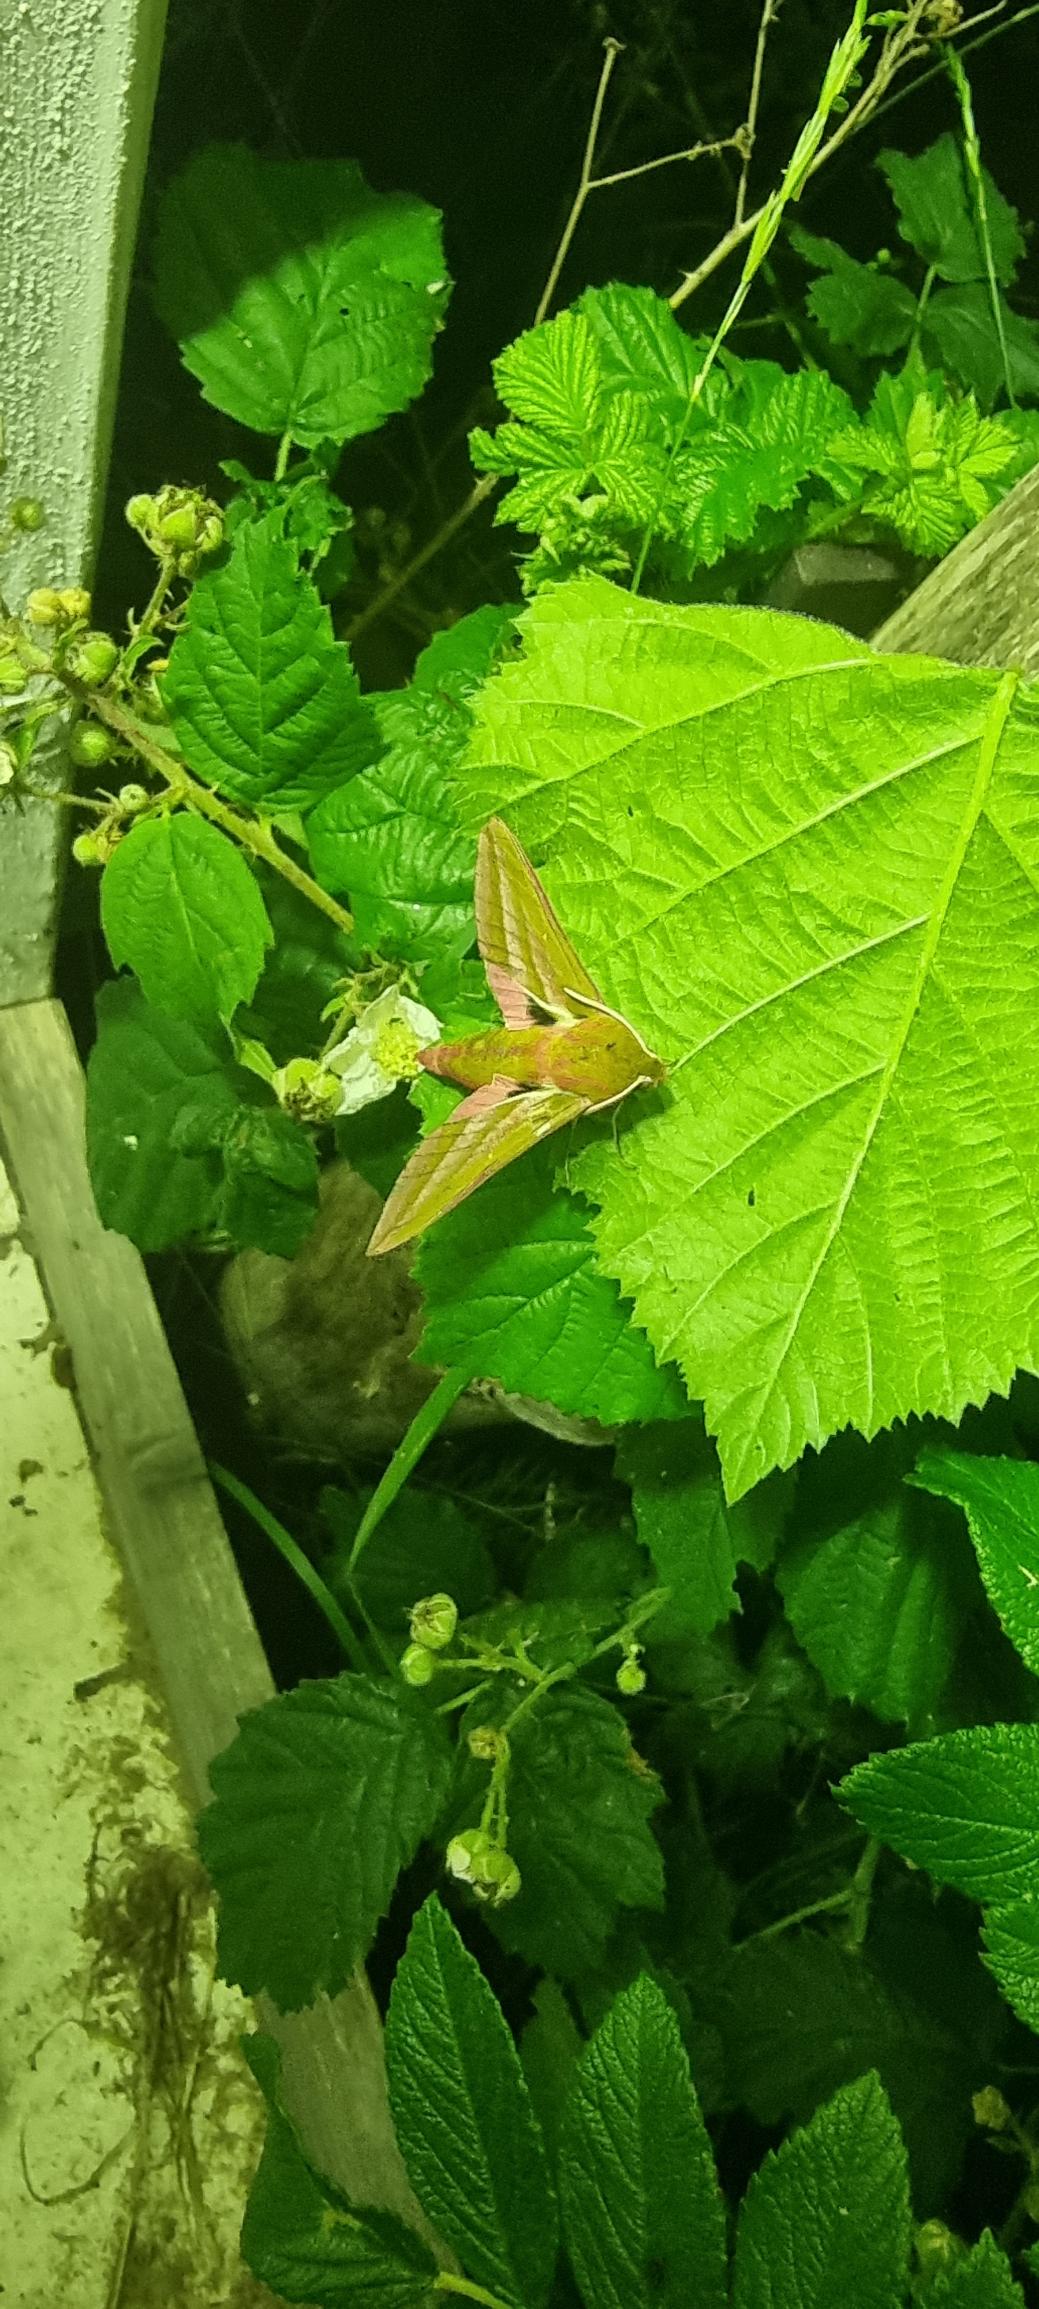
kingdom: Animalia
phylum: Arthropoda
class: Insecta
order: Lepidoptera
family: Sphingidae
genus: Deilephila
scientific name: Deilephila elpenor
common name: Dueurtsværmer
